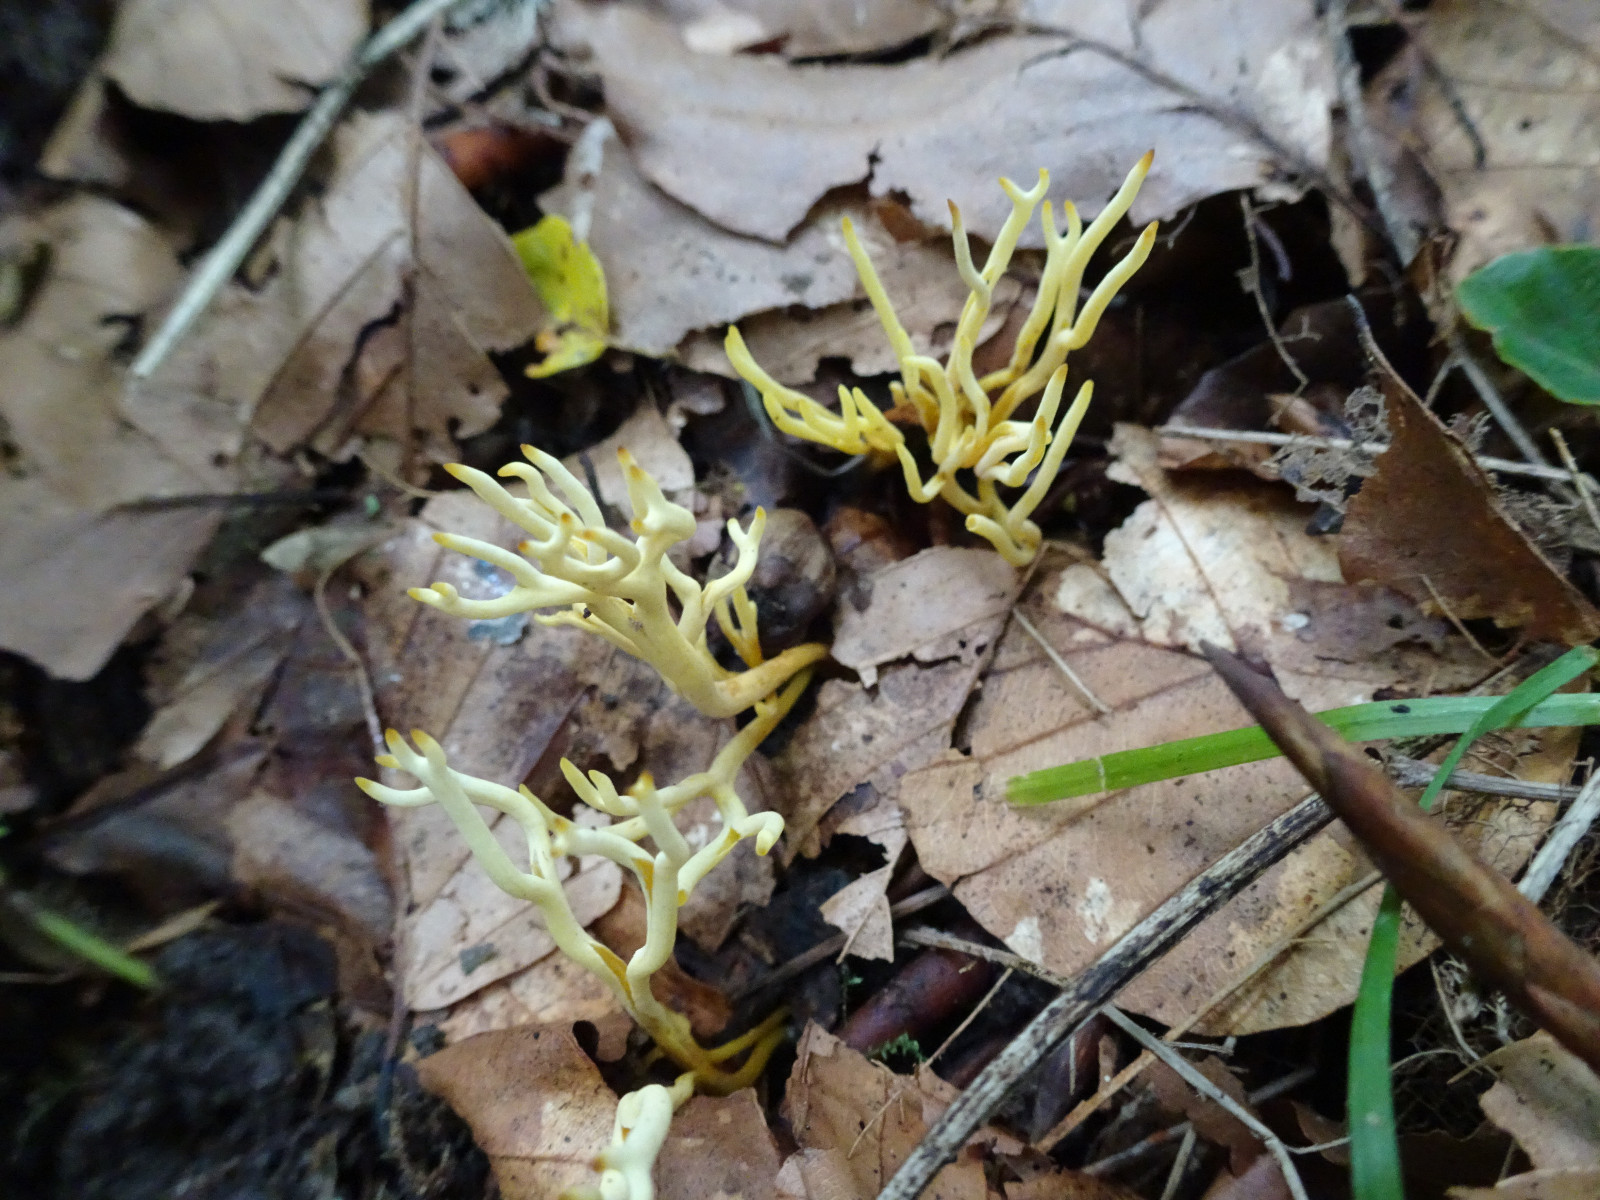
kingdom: Fungi
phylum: Basidiomycota
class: Agaricomycetes
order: Agaricales
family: Clavariaceae
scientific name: Clavariaceae
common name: køllesvampfamilien
